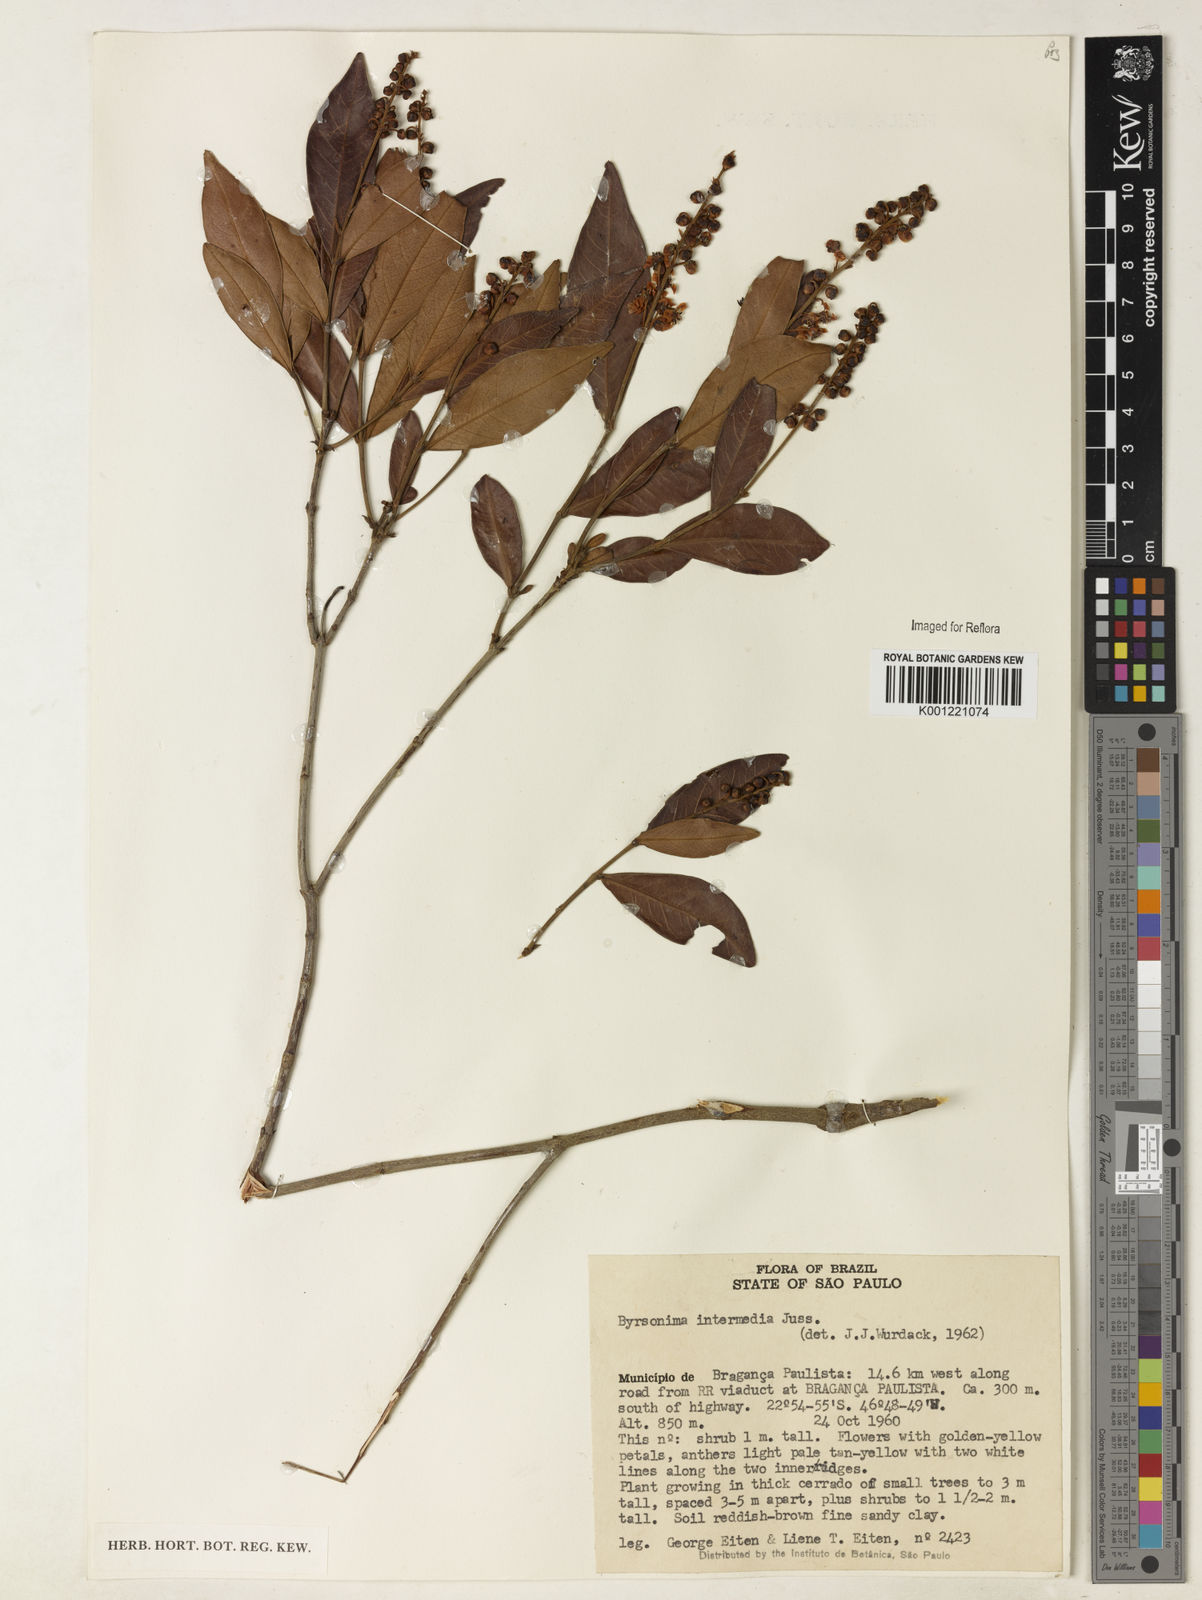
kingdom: Plantae
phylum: Tracheophyta
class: Magnoliopsida
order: Malpighiales
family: Malpighiaceae
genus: Byrsonima
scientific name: Byrsonima intermedia
